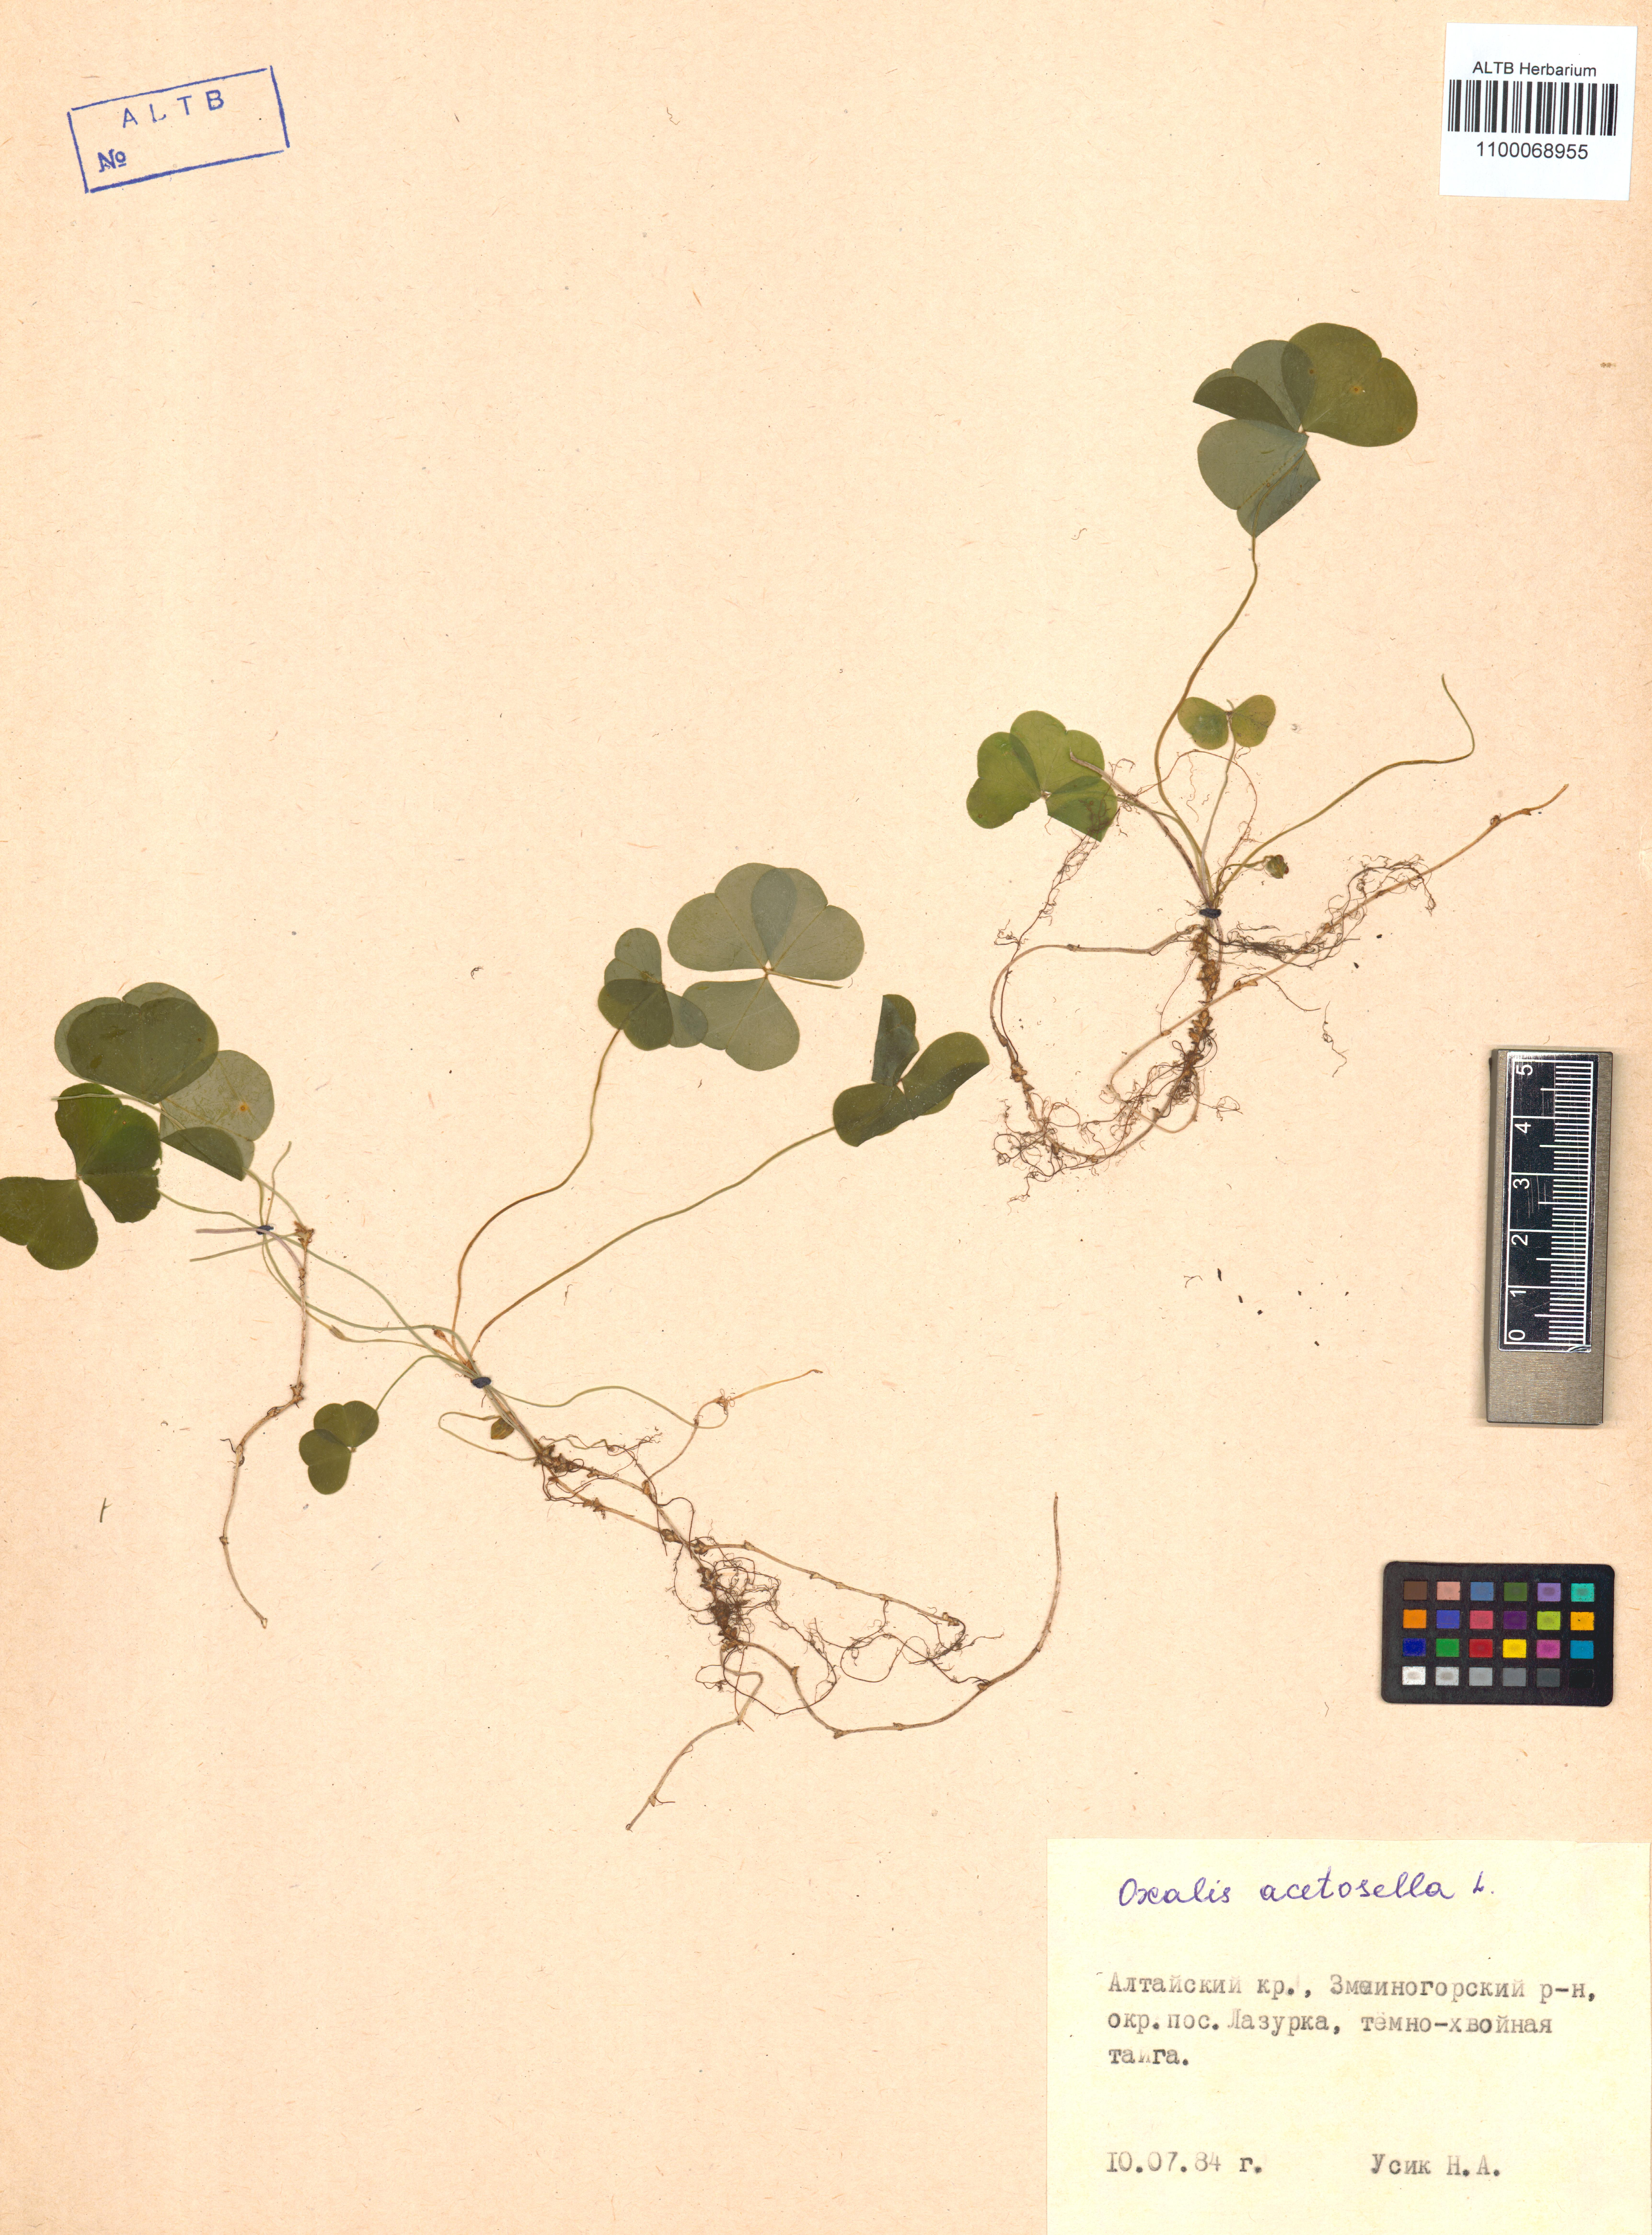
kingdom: Plantae
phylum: Tracheophyta
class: Magnoliopsida
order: Oxalidales
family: Oxalidaceae
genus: Oxalis
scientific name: Oxalis acetosella
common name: Wood-sorrel
